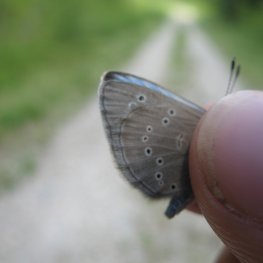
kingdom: Animalia
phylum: Arthropoda
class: Insecta
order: Lepidoptera
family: Lycaenidae
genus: Glaucopsyche
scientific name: Glaucopsyche lygdamus
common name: Silvery Blue
